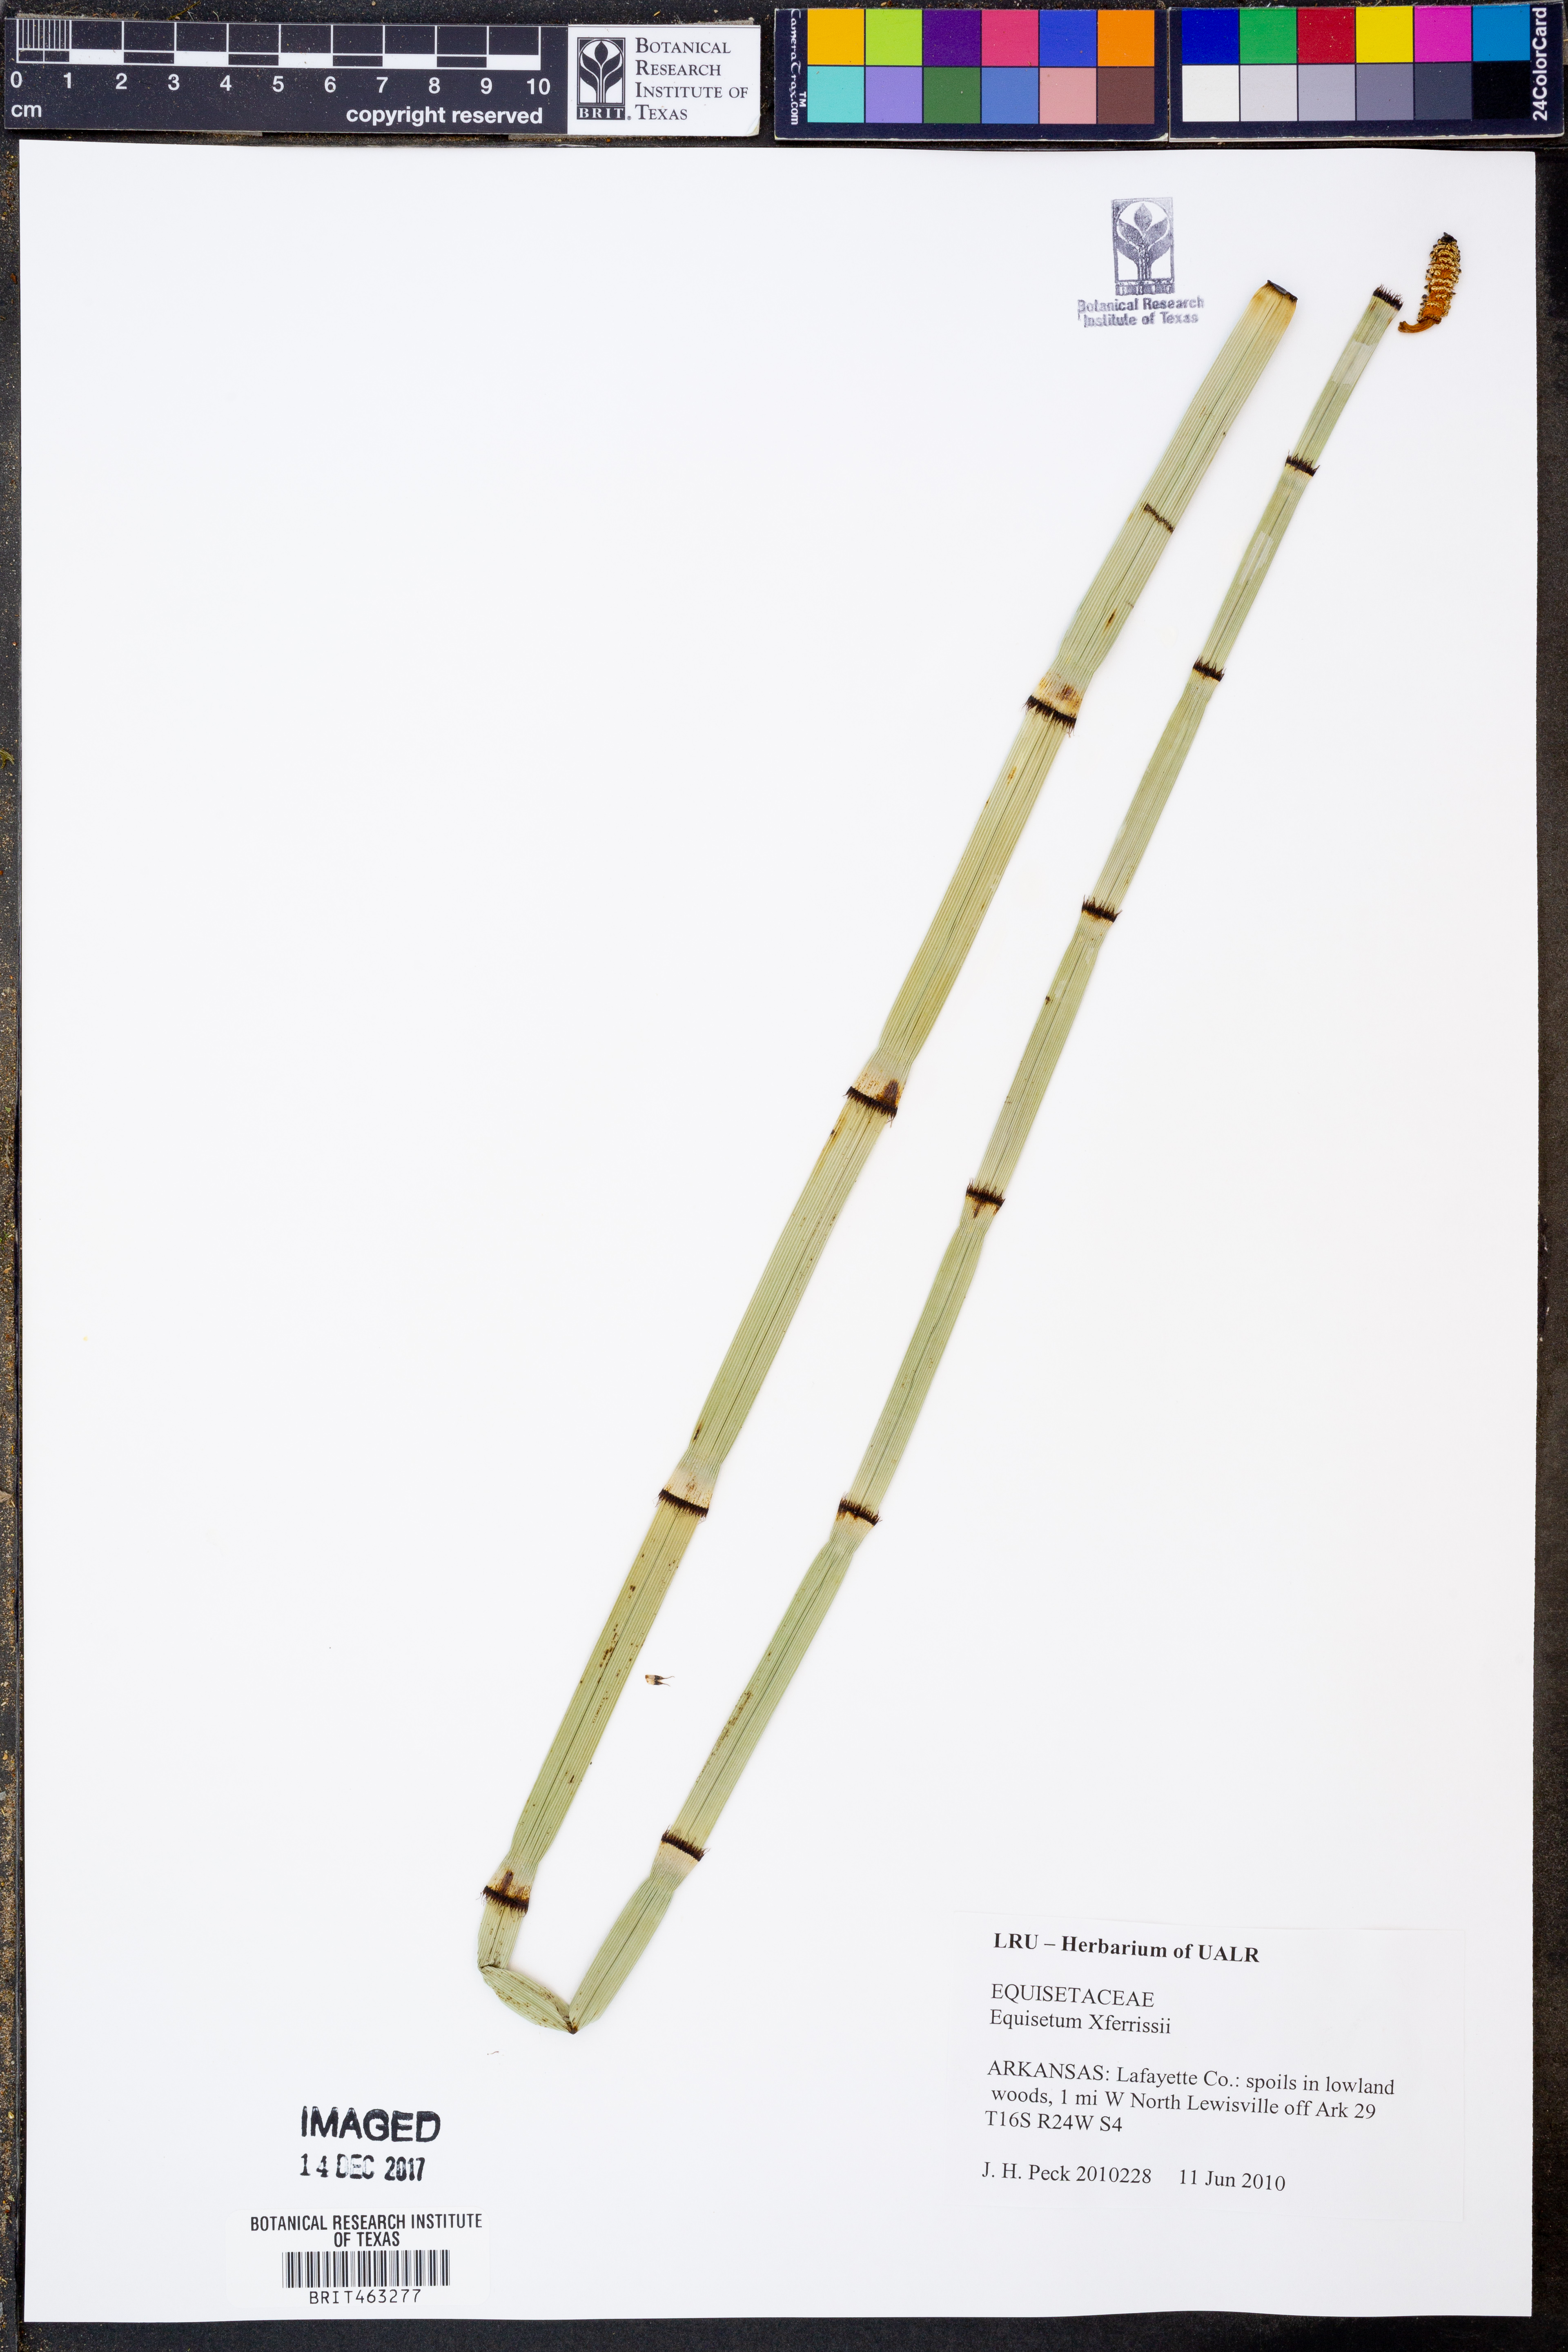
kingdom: Plantae
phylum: Tracheophyta
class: Polypodiopsida
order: Equisetales
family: Equisetaceae
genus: Equisetum
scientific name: Equisetum ferrissii
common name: Ferriss' horsetail
